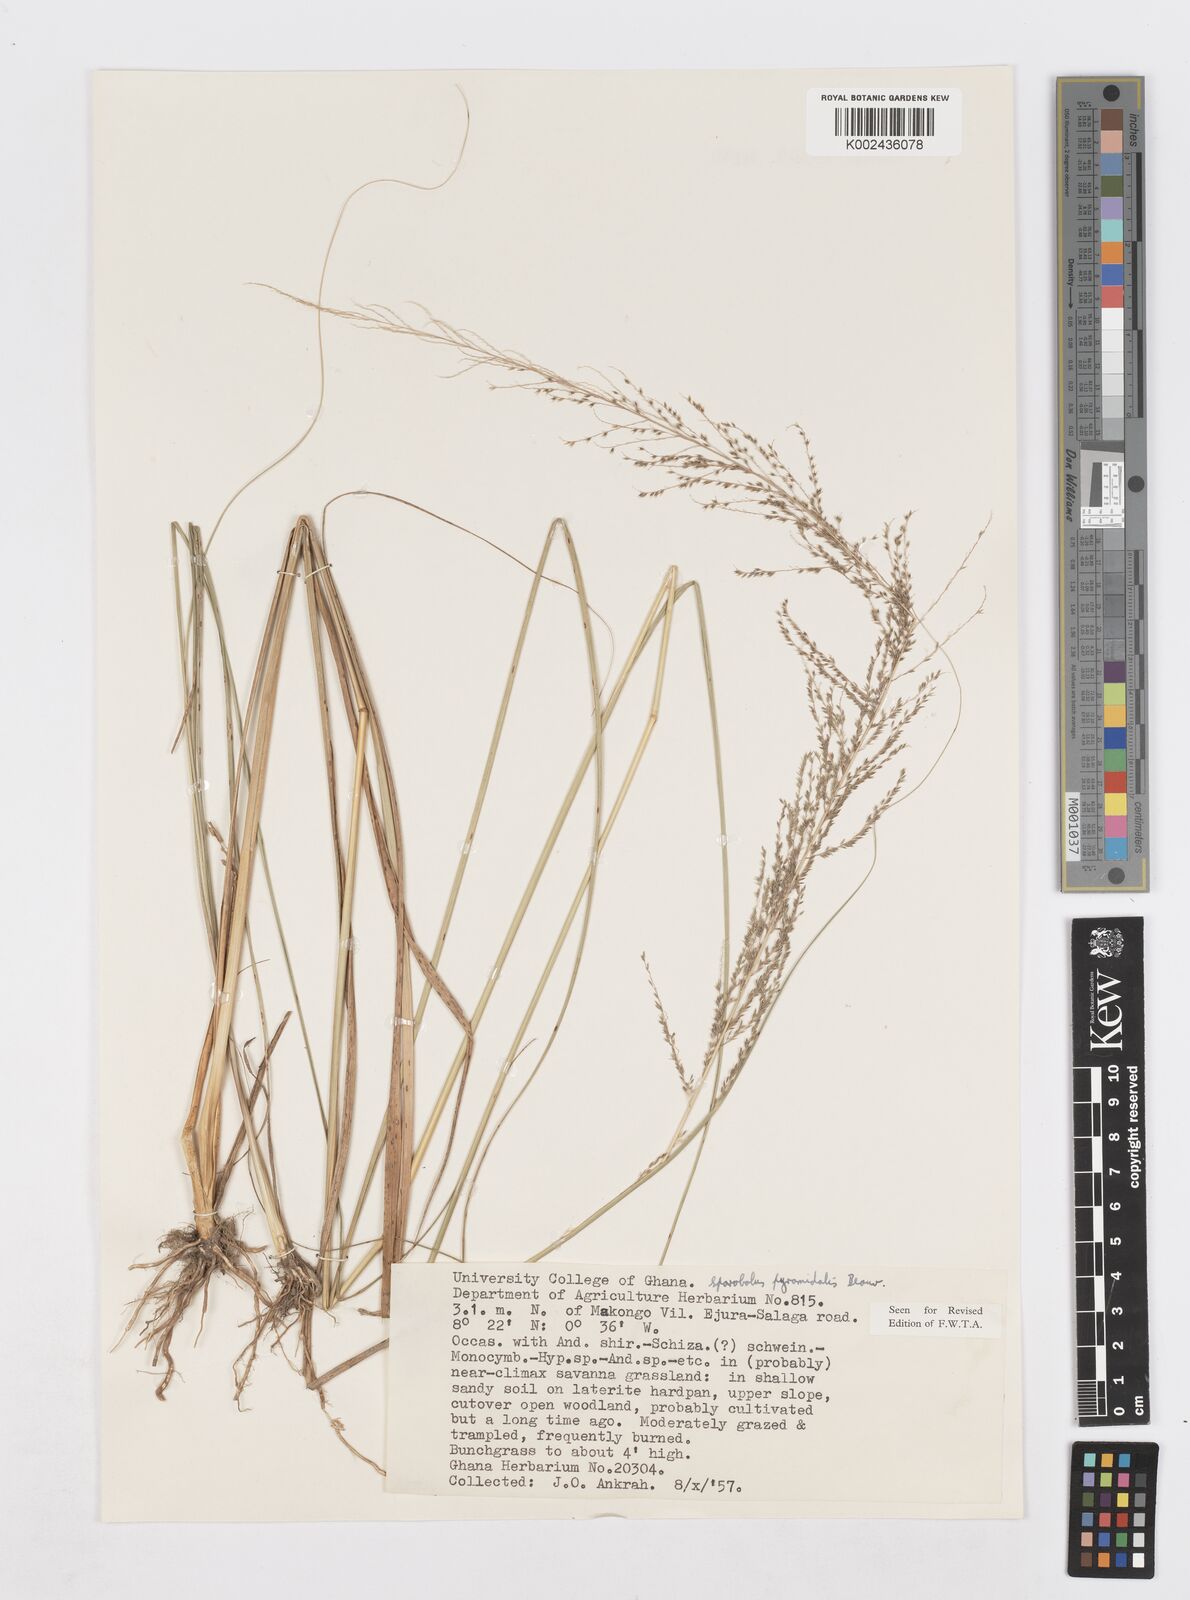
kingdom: Plantae
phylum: Tracheophyta
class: Liliopsida
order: Poales
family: Poaceae
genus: Sporobolus
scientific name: Sporobolus pyramidalis
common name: West indian dropseed
